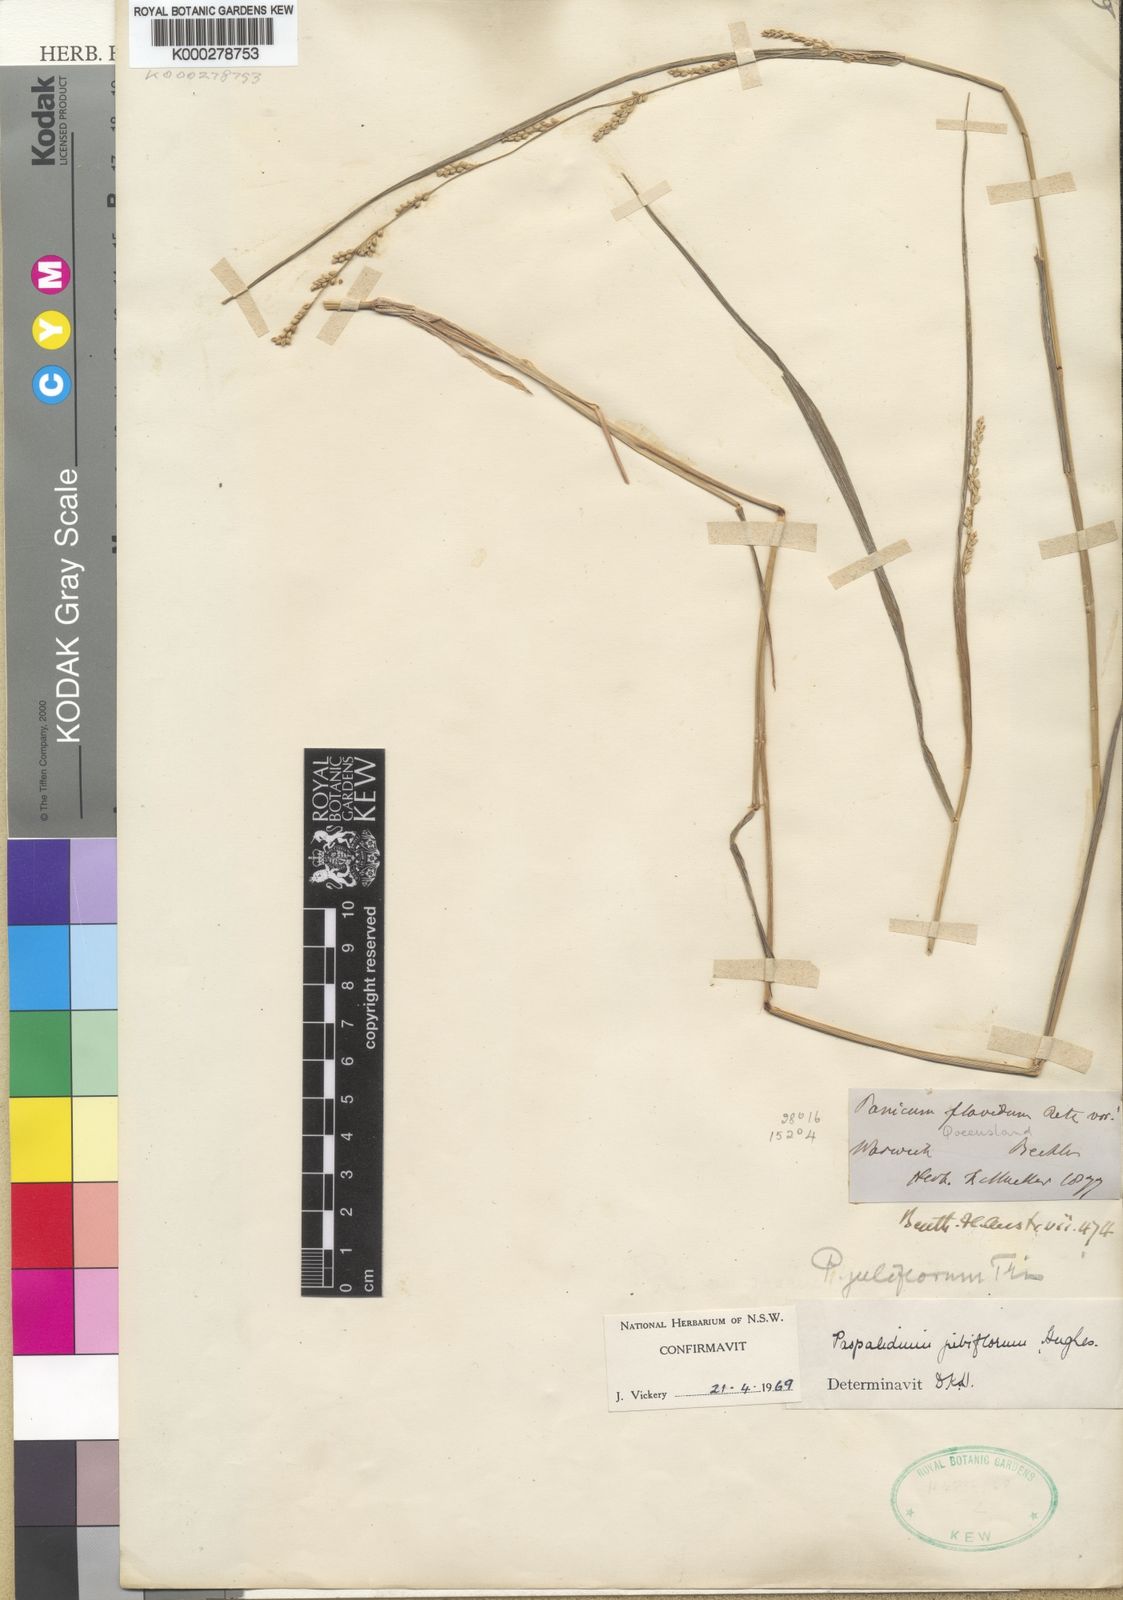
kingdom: Plantae
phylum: Tracheophyta
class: Liliopsida
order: Poales
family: Poaceae
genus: Setaria
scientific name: Setaria jubiflora
